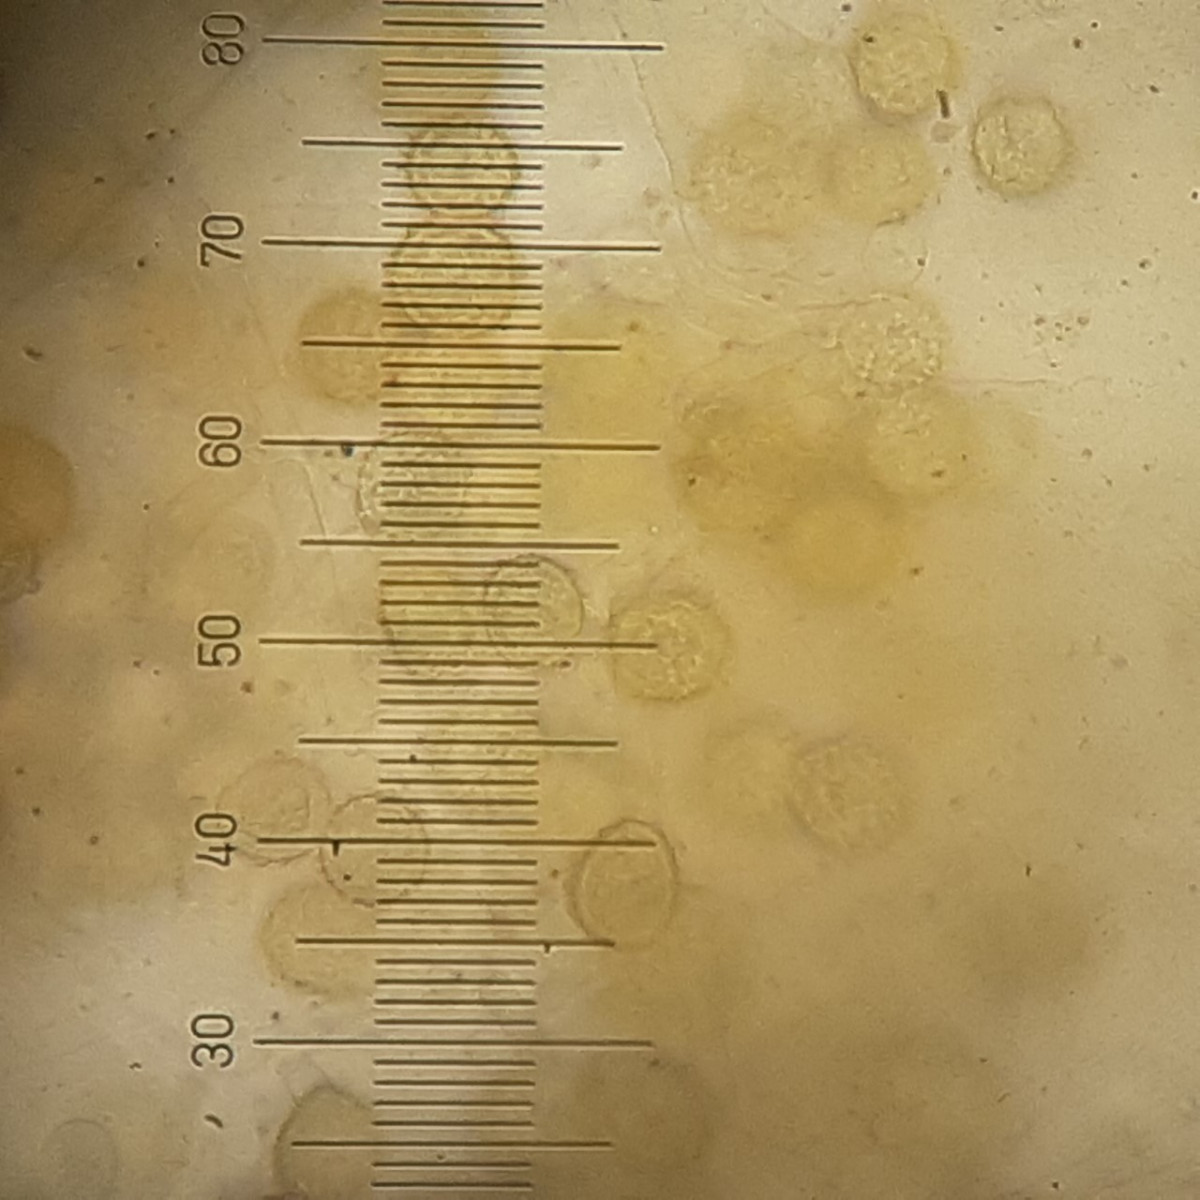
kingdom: Fungi
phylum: Ascomycota
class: Sordariomycetes
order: Hypocreales
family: Hypocreaceae
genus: Hypomyces
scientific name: Hypomyces chrysospermus
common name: gulskimmel-snylteskorpe
